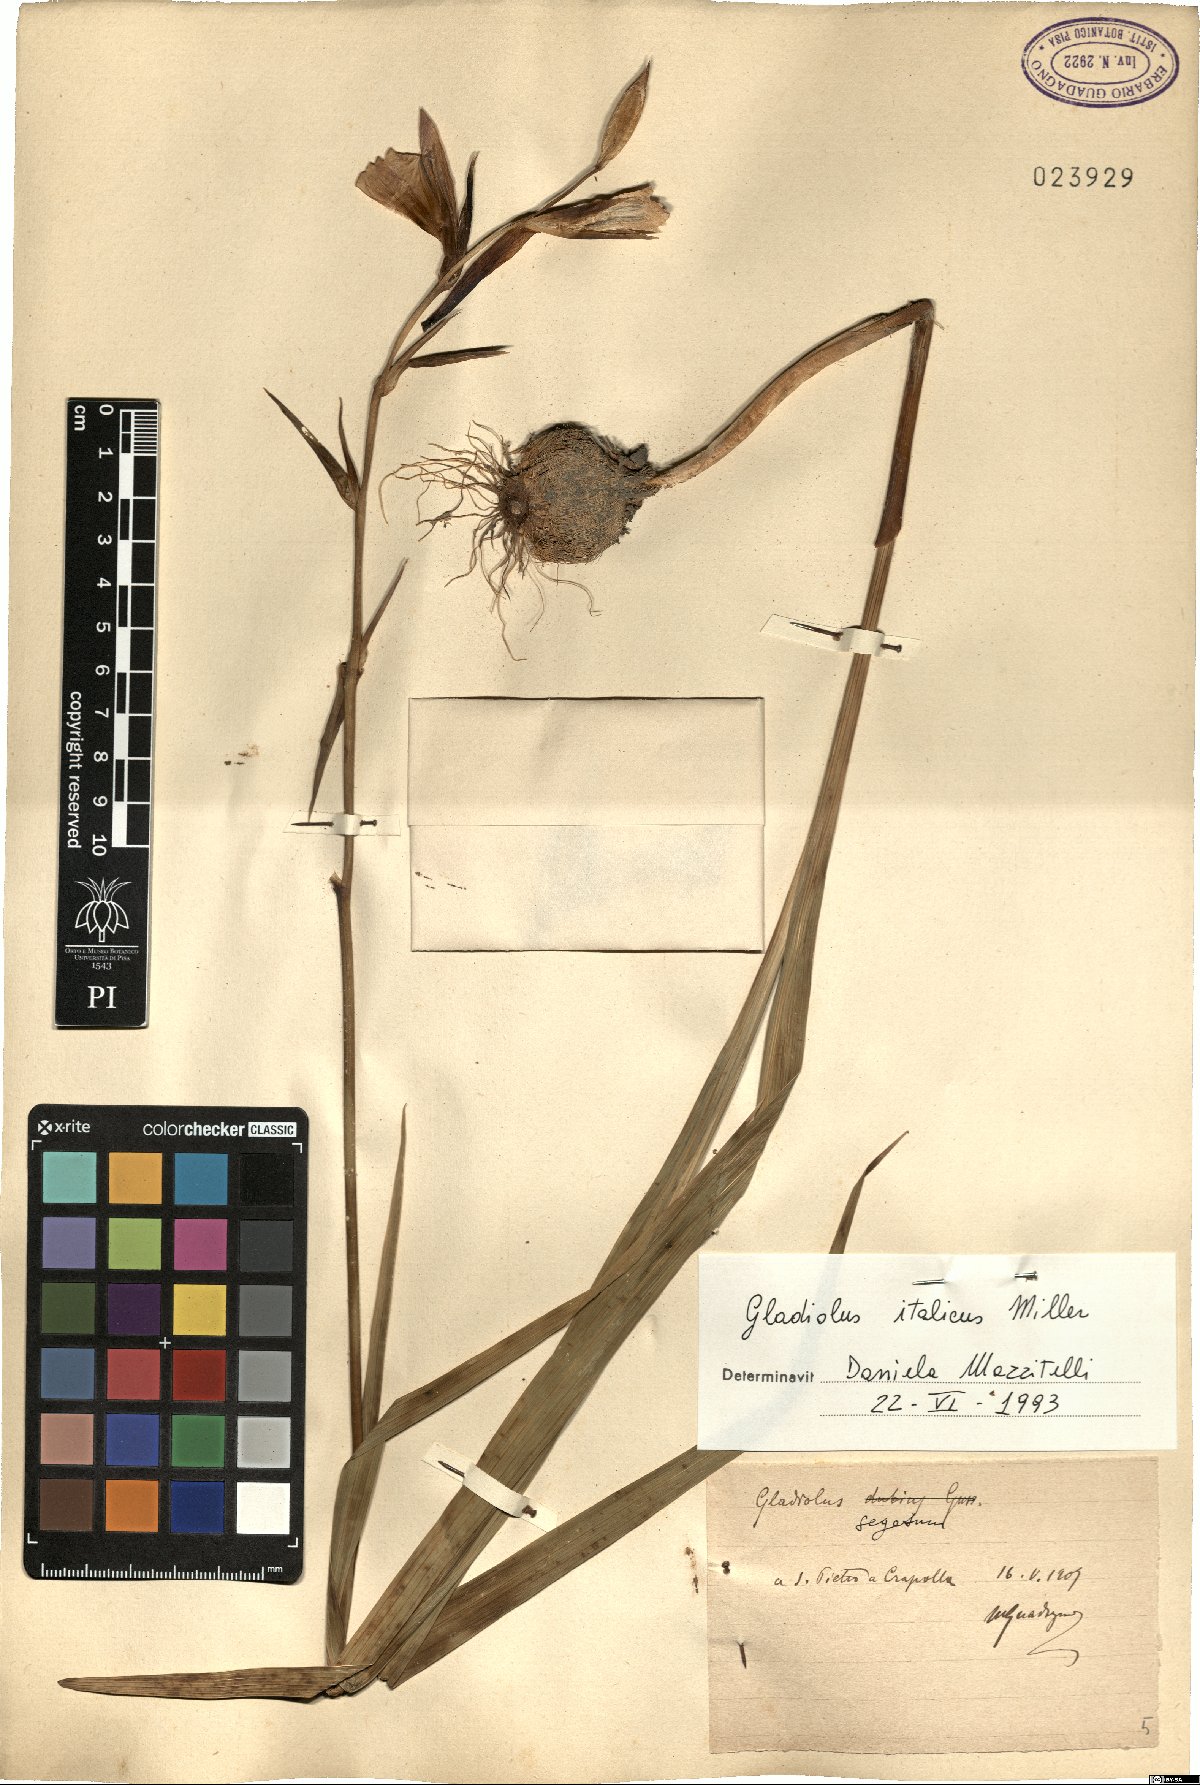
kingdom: Plantae
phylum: Tracheophyta
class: Liliopsida
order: Asparagales
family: Iridaceae
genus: Gladiolus
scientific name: Gladiolus italicus
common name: Field gladiolus
